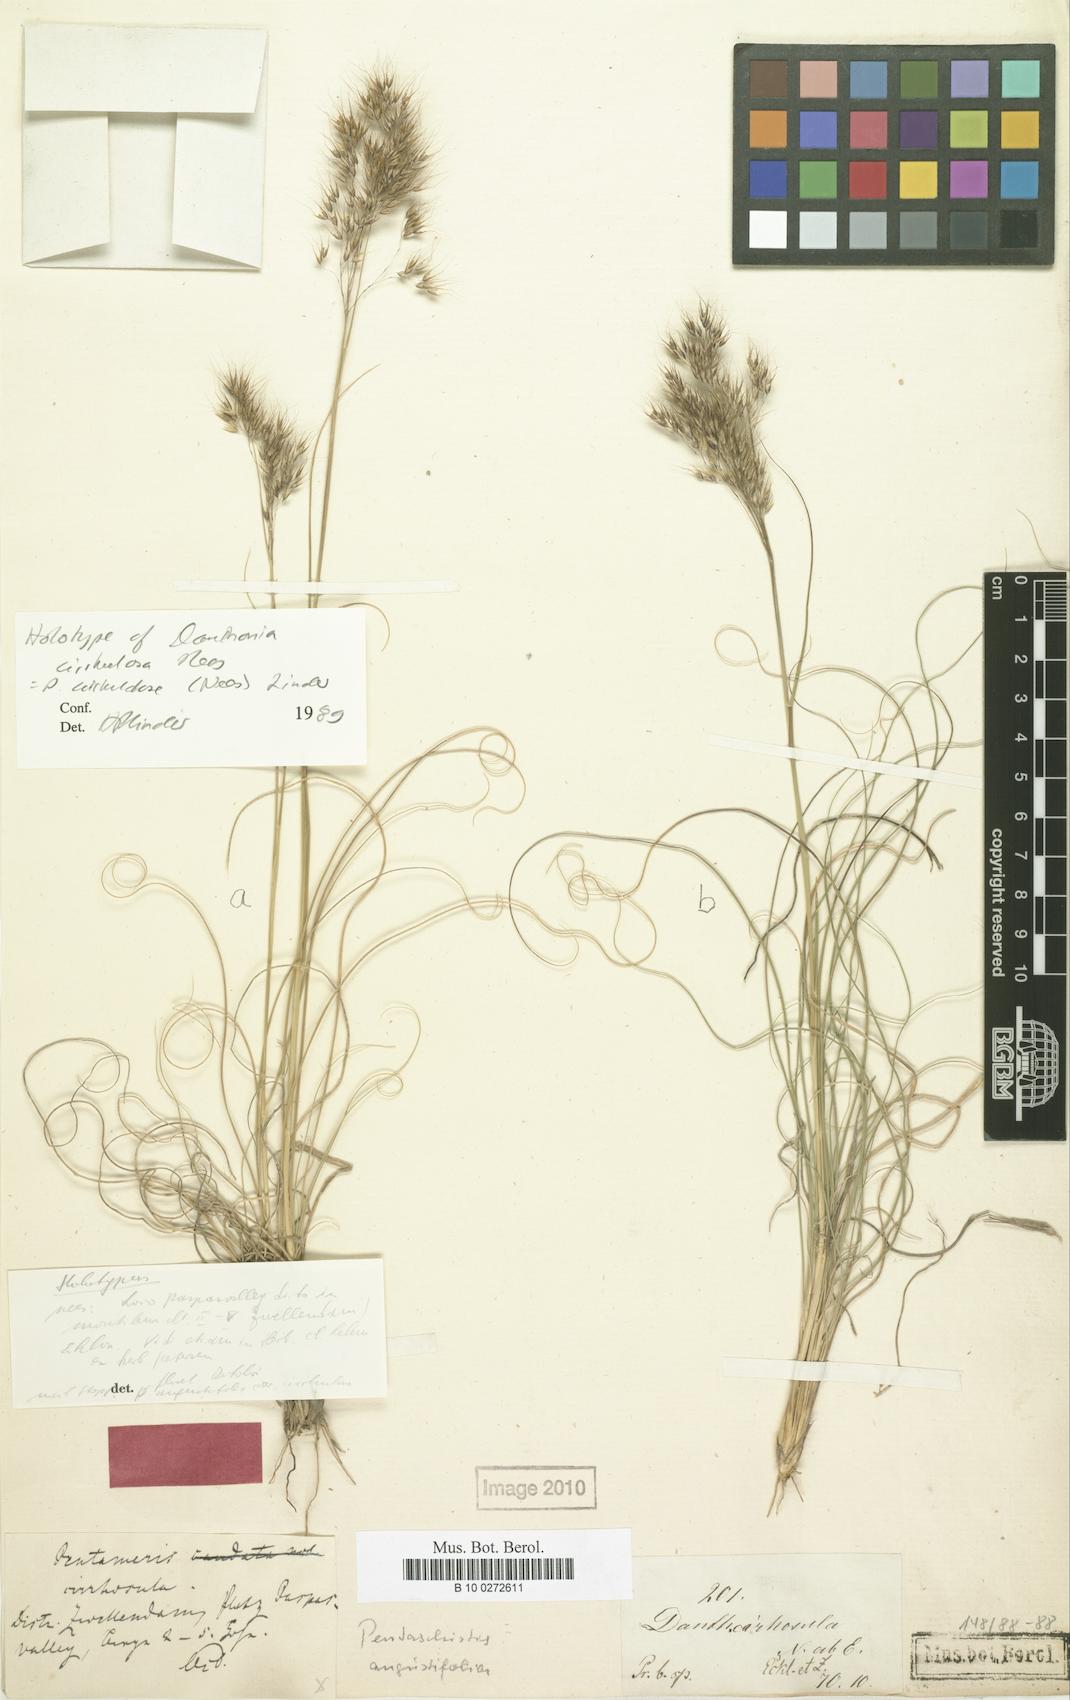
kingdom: Plantae
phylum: Tracheophyta
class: Liliopsida
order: Poales
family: Poaceae
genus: Pentameris
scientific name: Pentameris cirrhulosa
